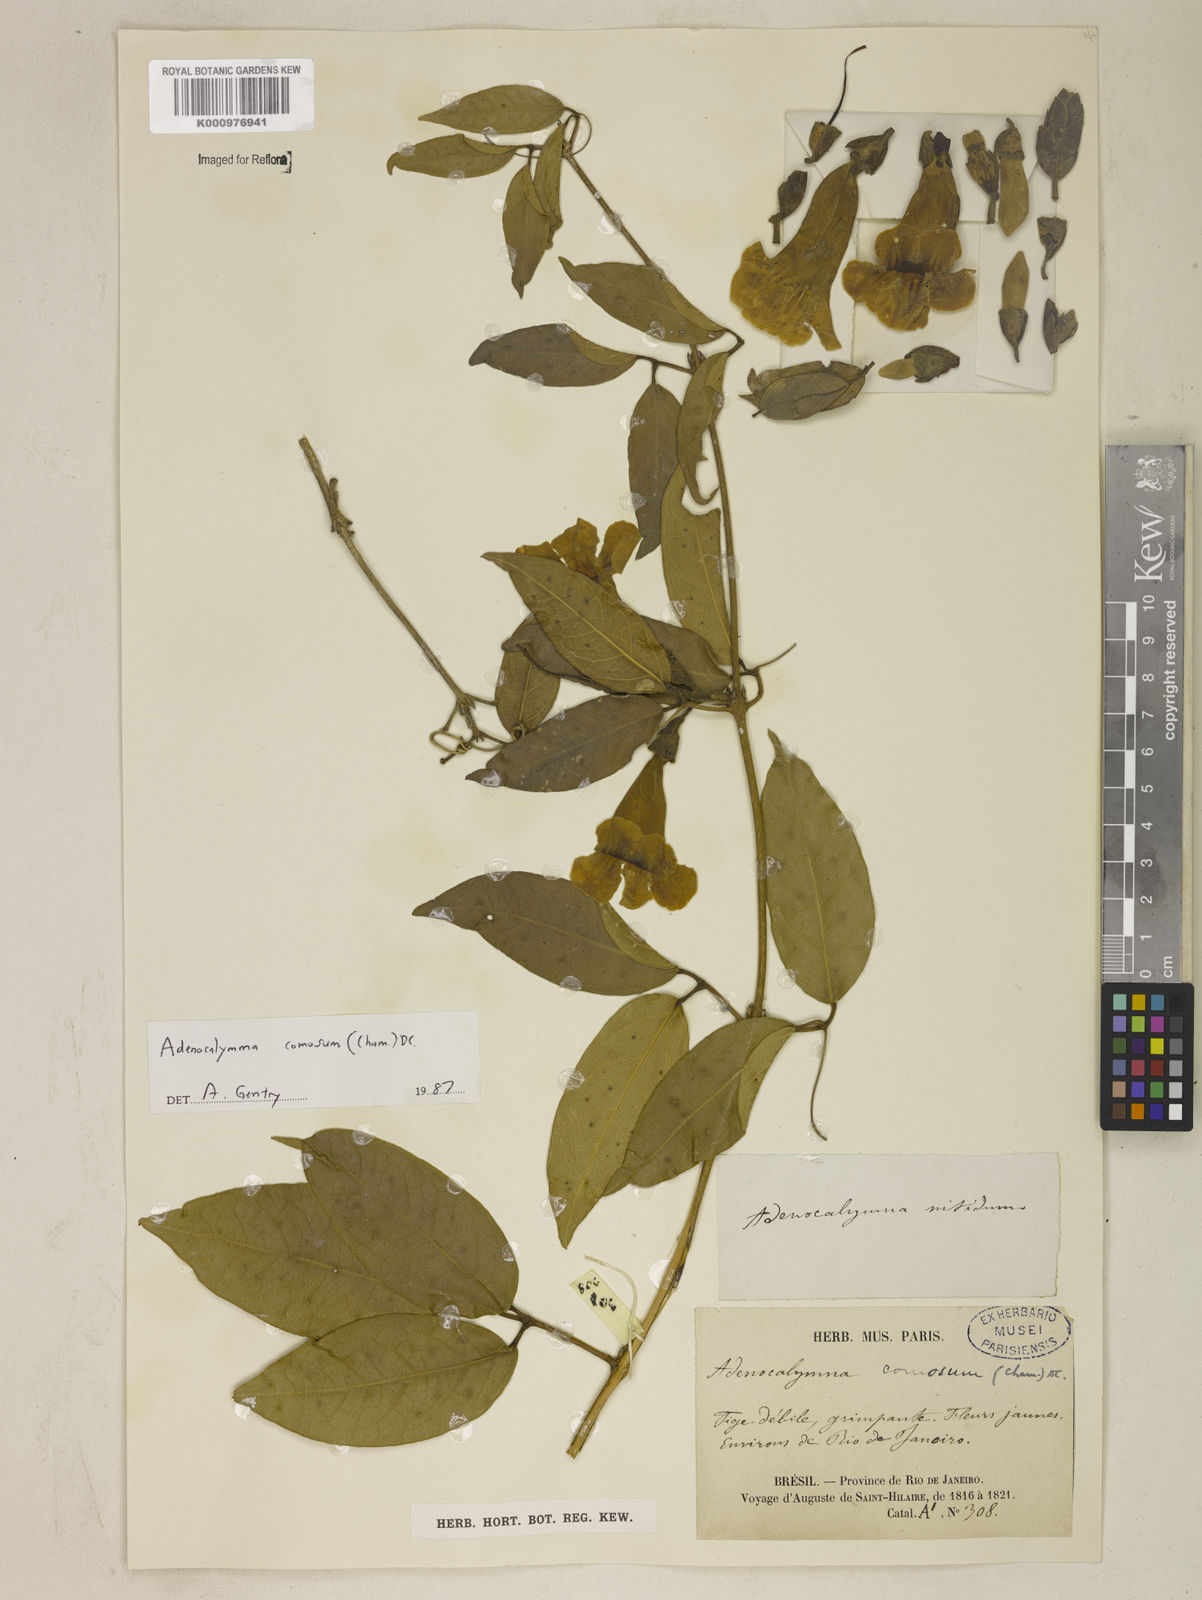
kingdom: Plantae
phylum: Tracheophyta
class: Magnoliopsida
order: Lamiales
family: Bignoniaceae
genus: Adenocalymma
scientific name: Adenocalymma acutissimum
